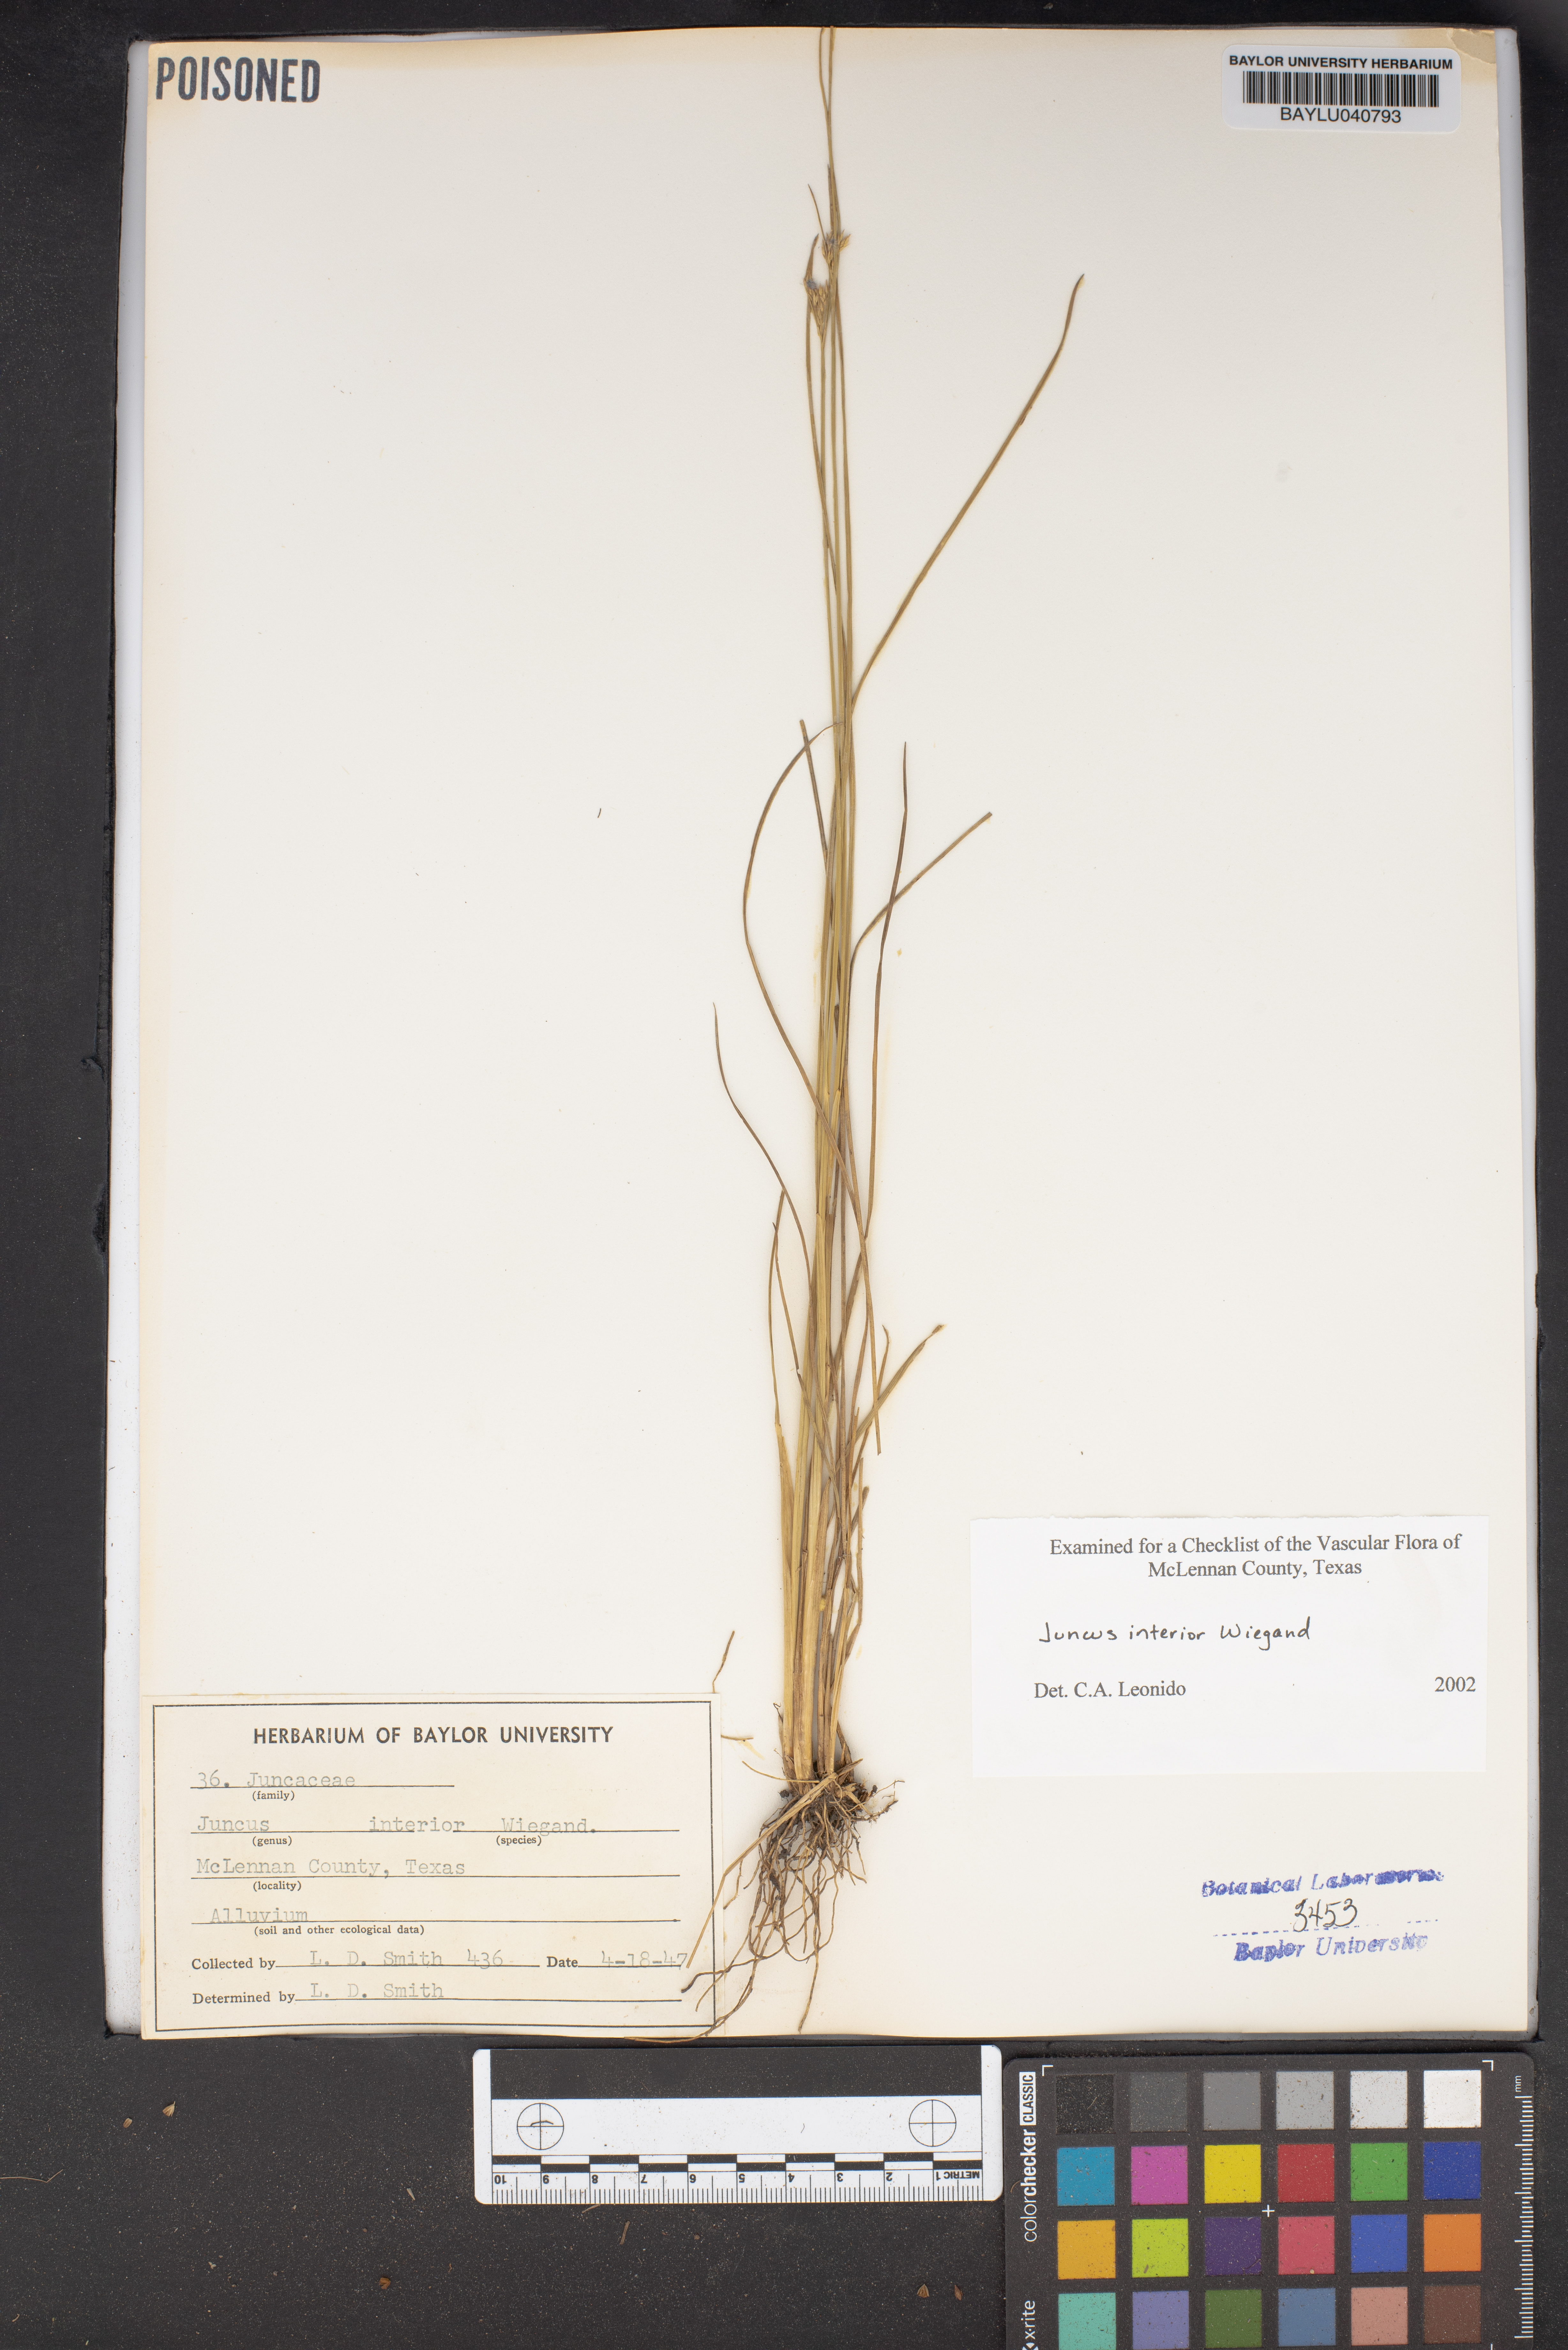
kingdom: Plantae
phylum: Tracheophyta
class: Liliopsida
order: Poales
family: Juncaceae
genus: Juncus
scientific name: Juncus interior
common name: Interior rush
